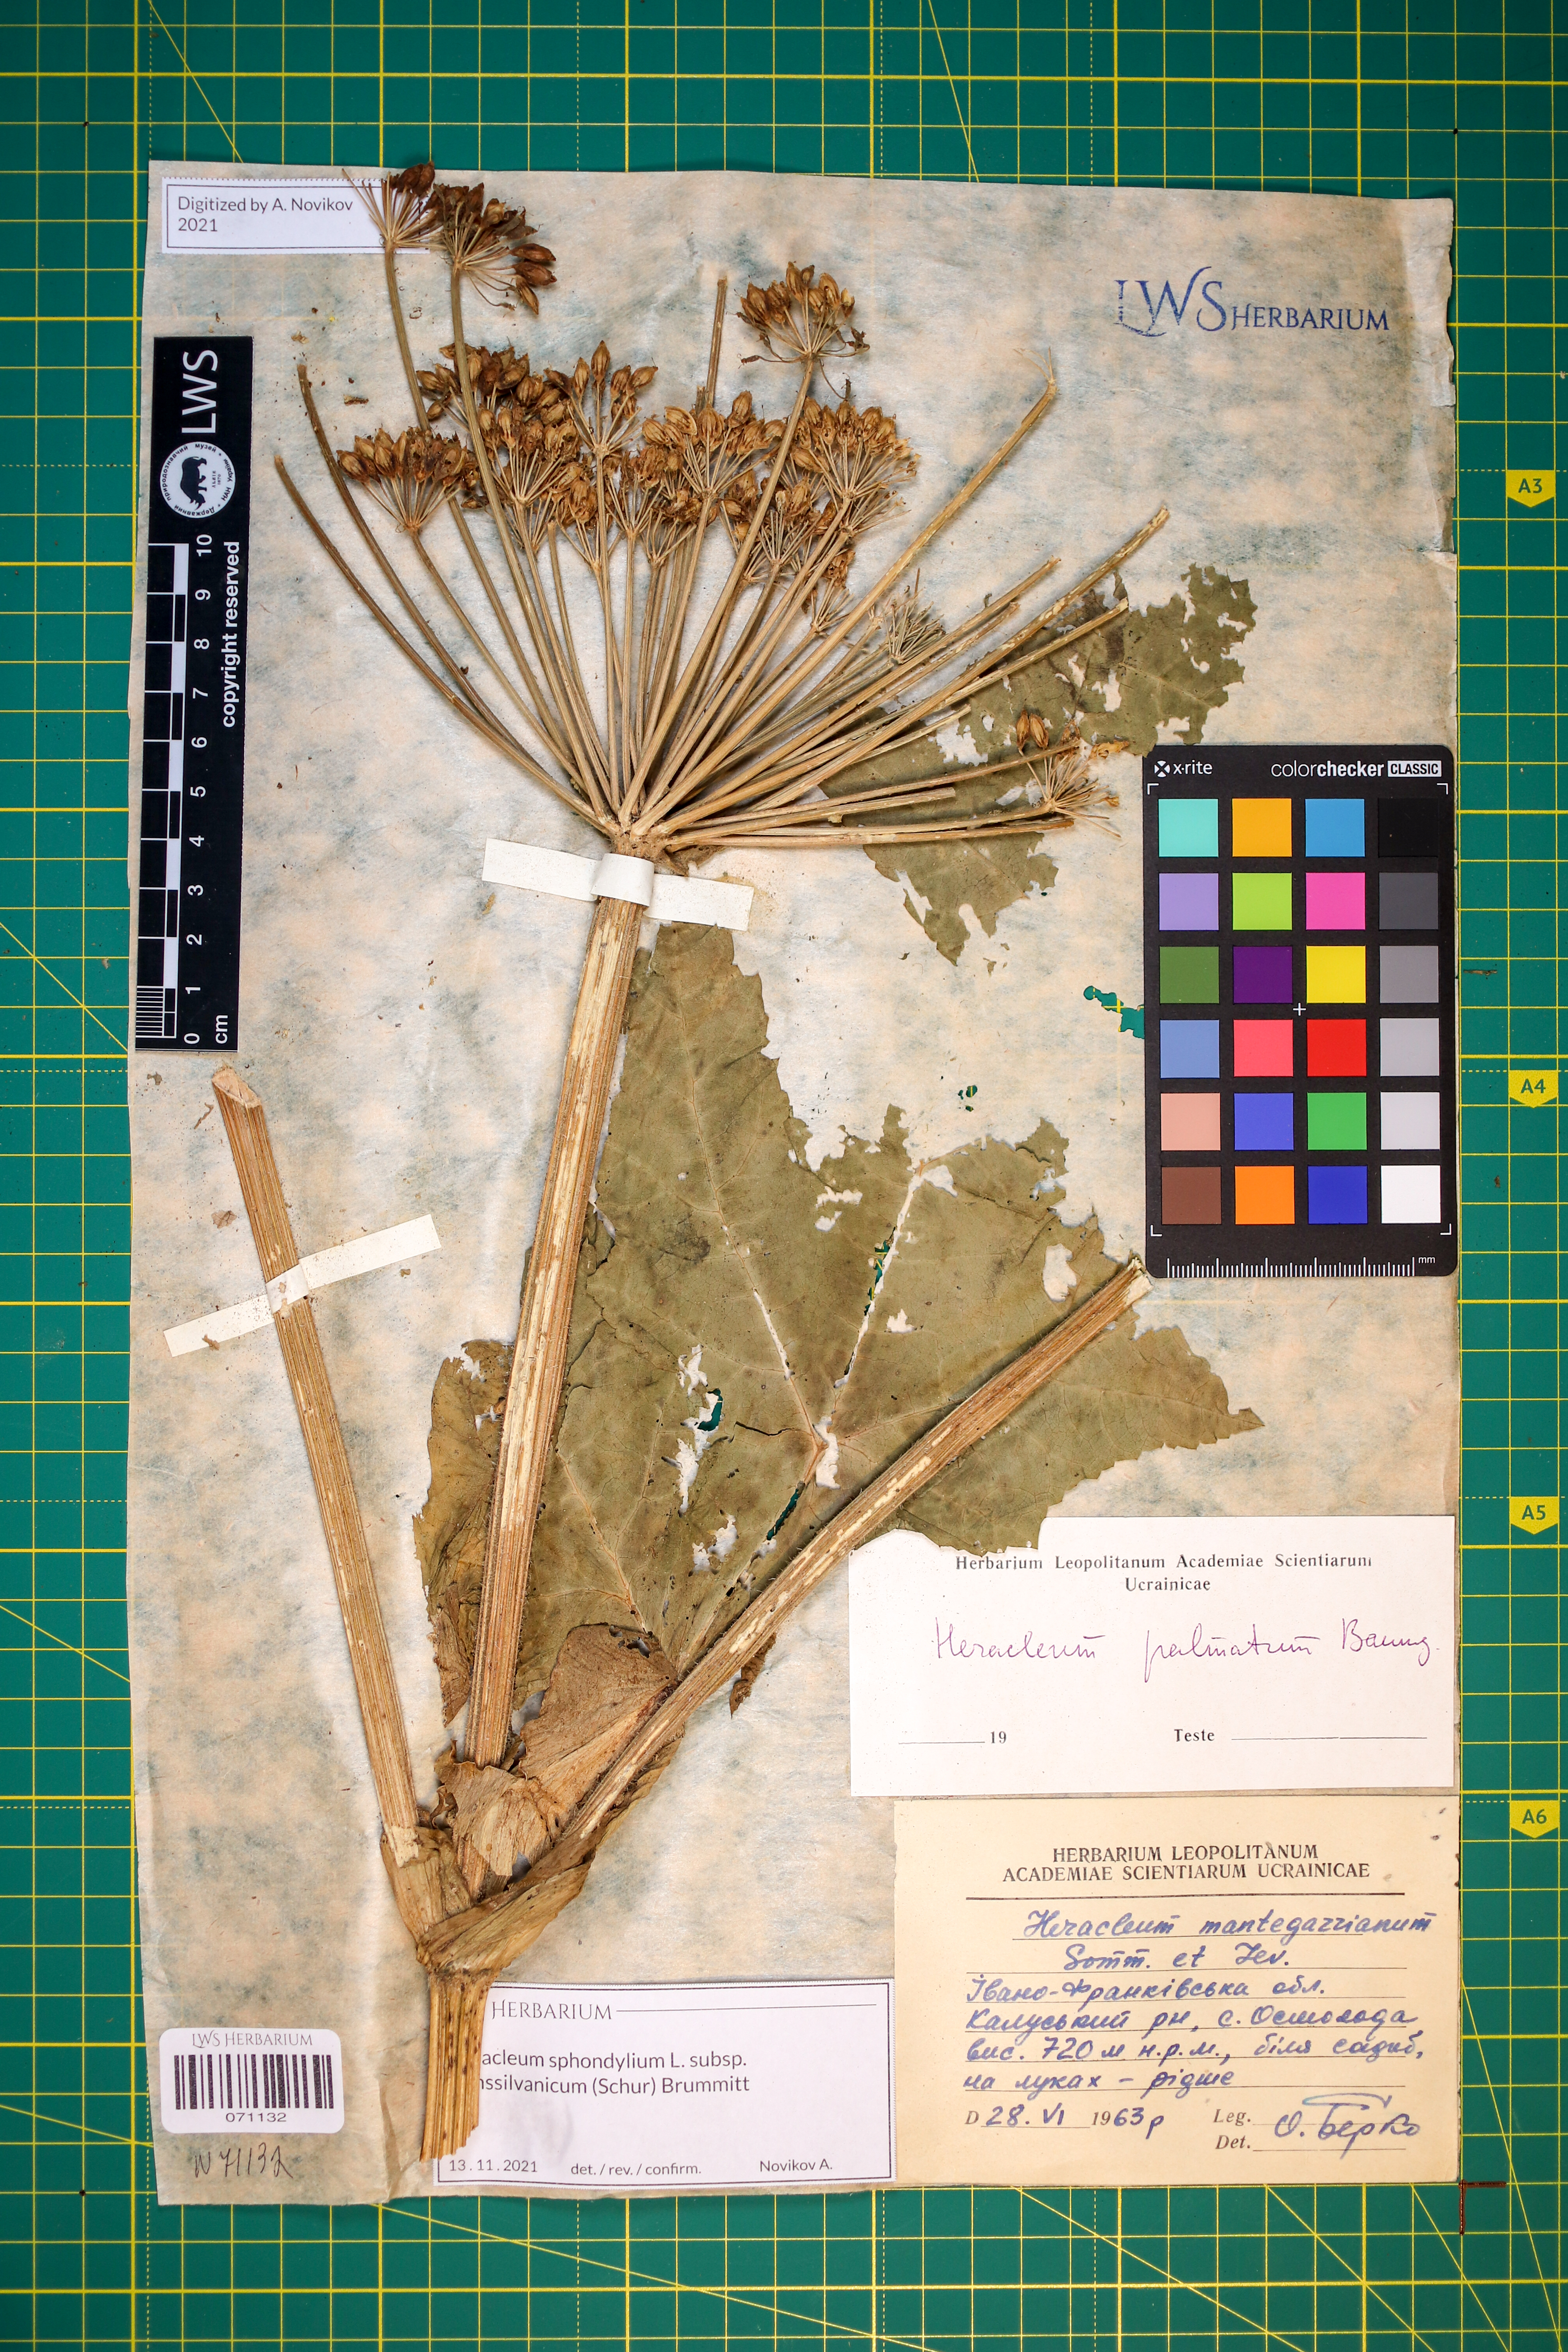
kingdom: Plantae
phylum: Tracheophyta
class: Magnoliopsida
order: Apiales
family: Apiaceae
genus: Heracleum
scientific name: Heracleum sphondylium
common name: Hogweed
